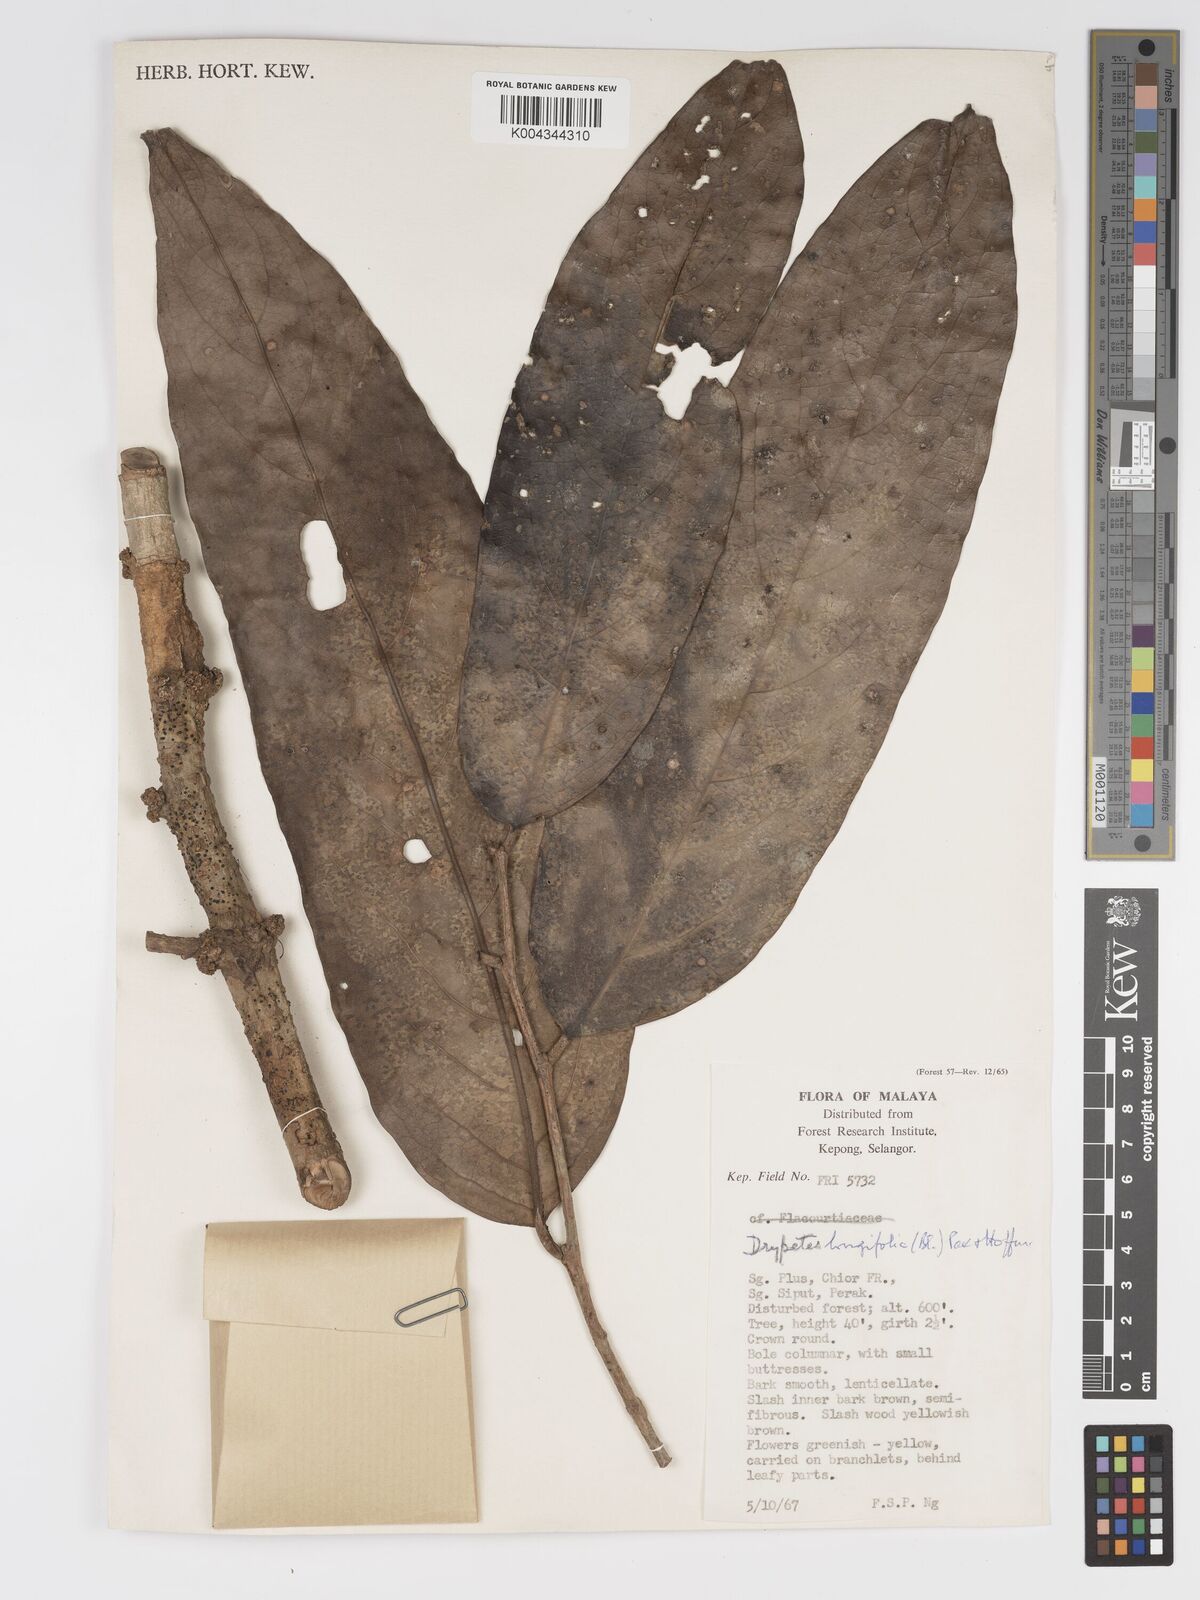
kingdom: Plantae
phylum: Tracheophyta
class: Magnoliopsida
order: Malpighiales
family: Putranjivaceae
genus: Drypetes
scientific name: Drypetes longifolia
